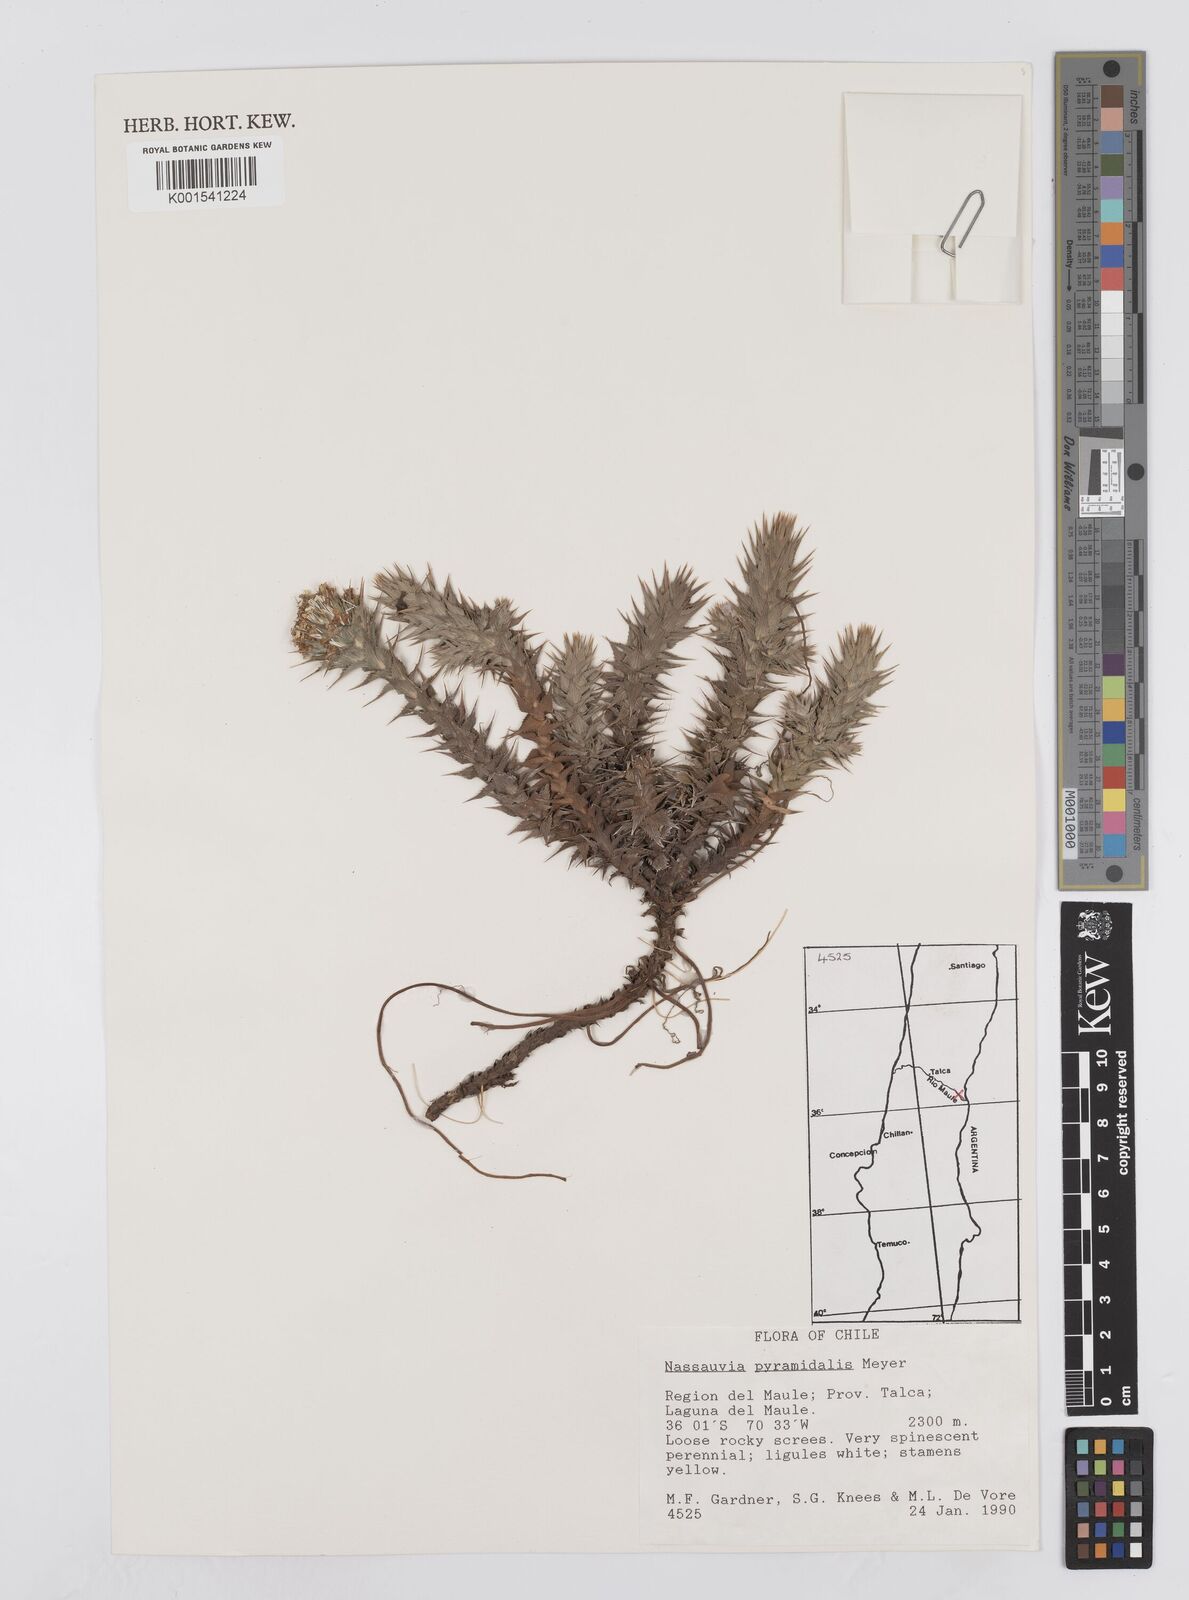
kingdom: Plantae
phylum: Tracheophyta
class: Magnoliopsida
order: Asterales
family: Asteraceae
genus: Nassauvia
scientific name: Nassauvia pyramidalis
